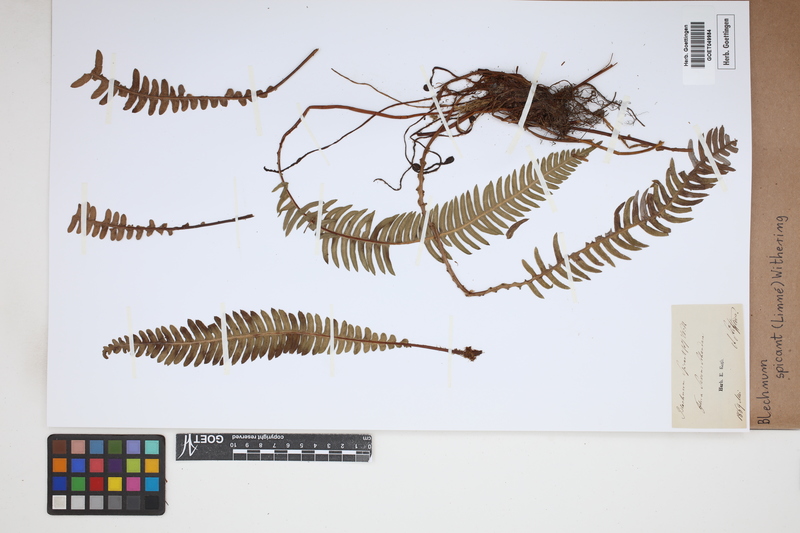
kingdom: Plantae
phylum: Tracheophyta
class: Polypodiopsida
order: Polypodiales
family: Blechnaceae
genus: Struthiopteris
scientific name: Struthiopteris spicant
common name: Deer fern
